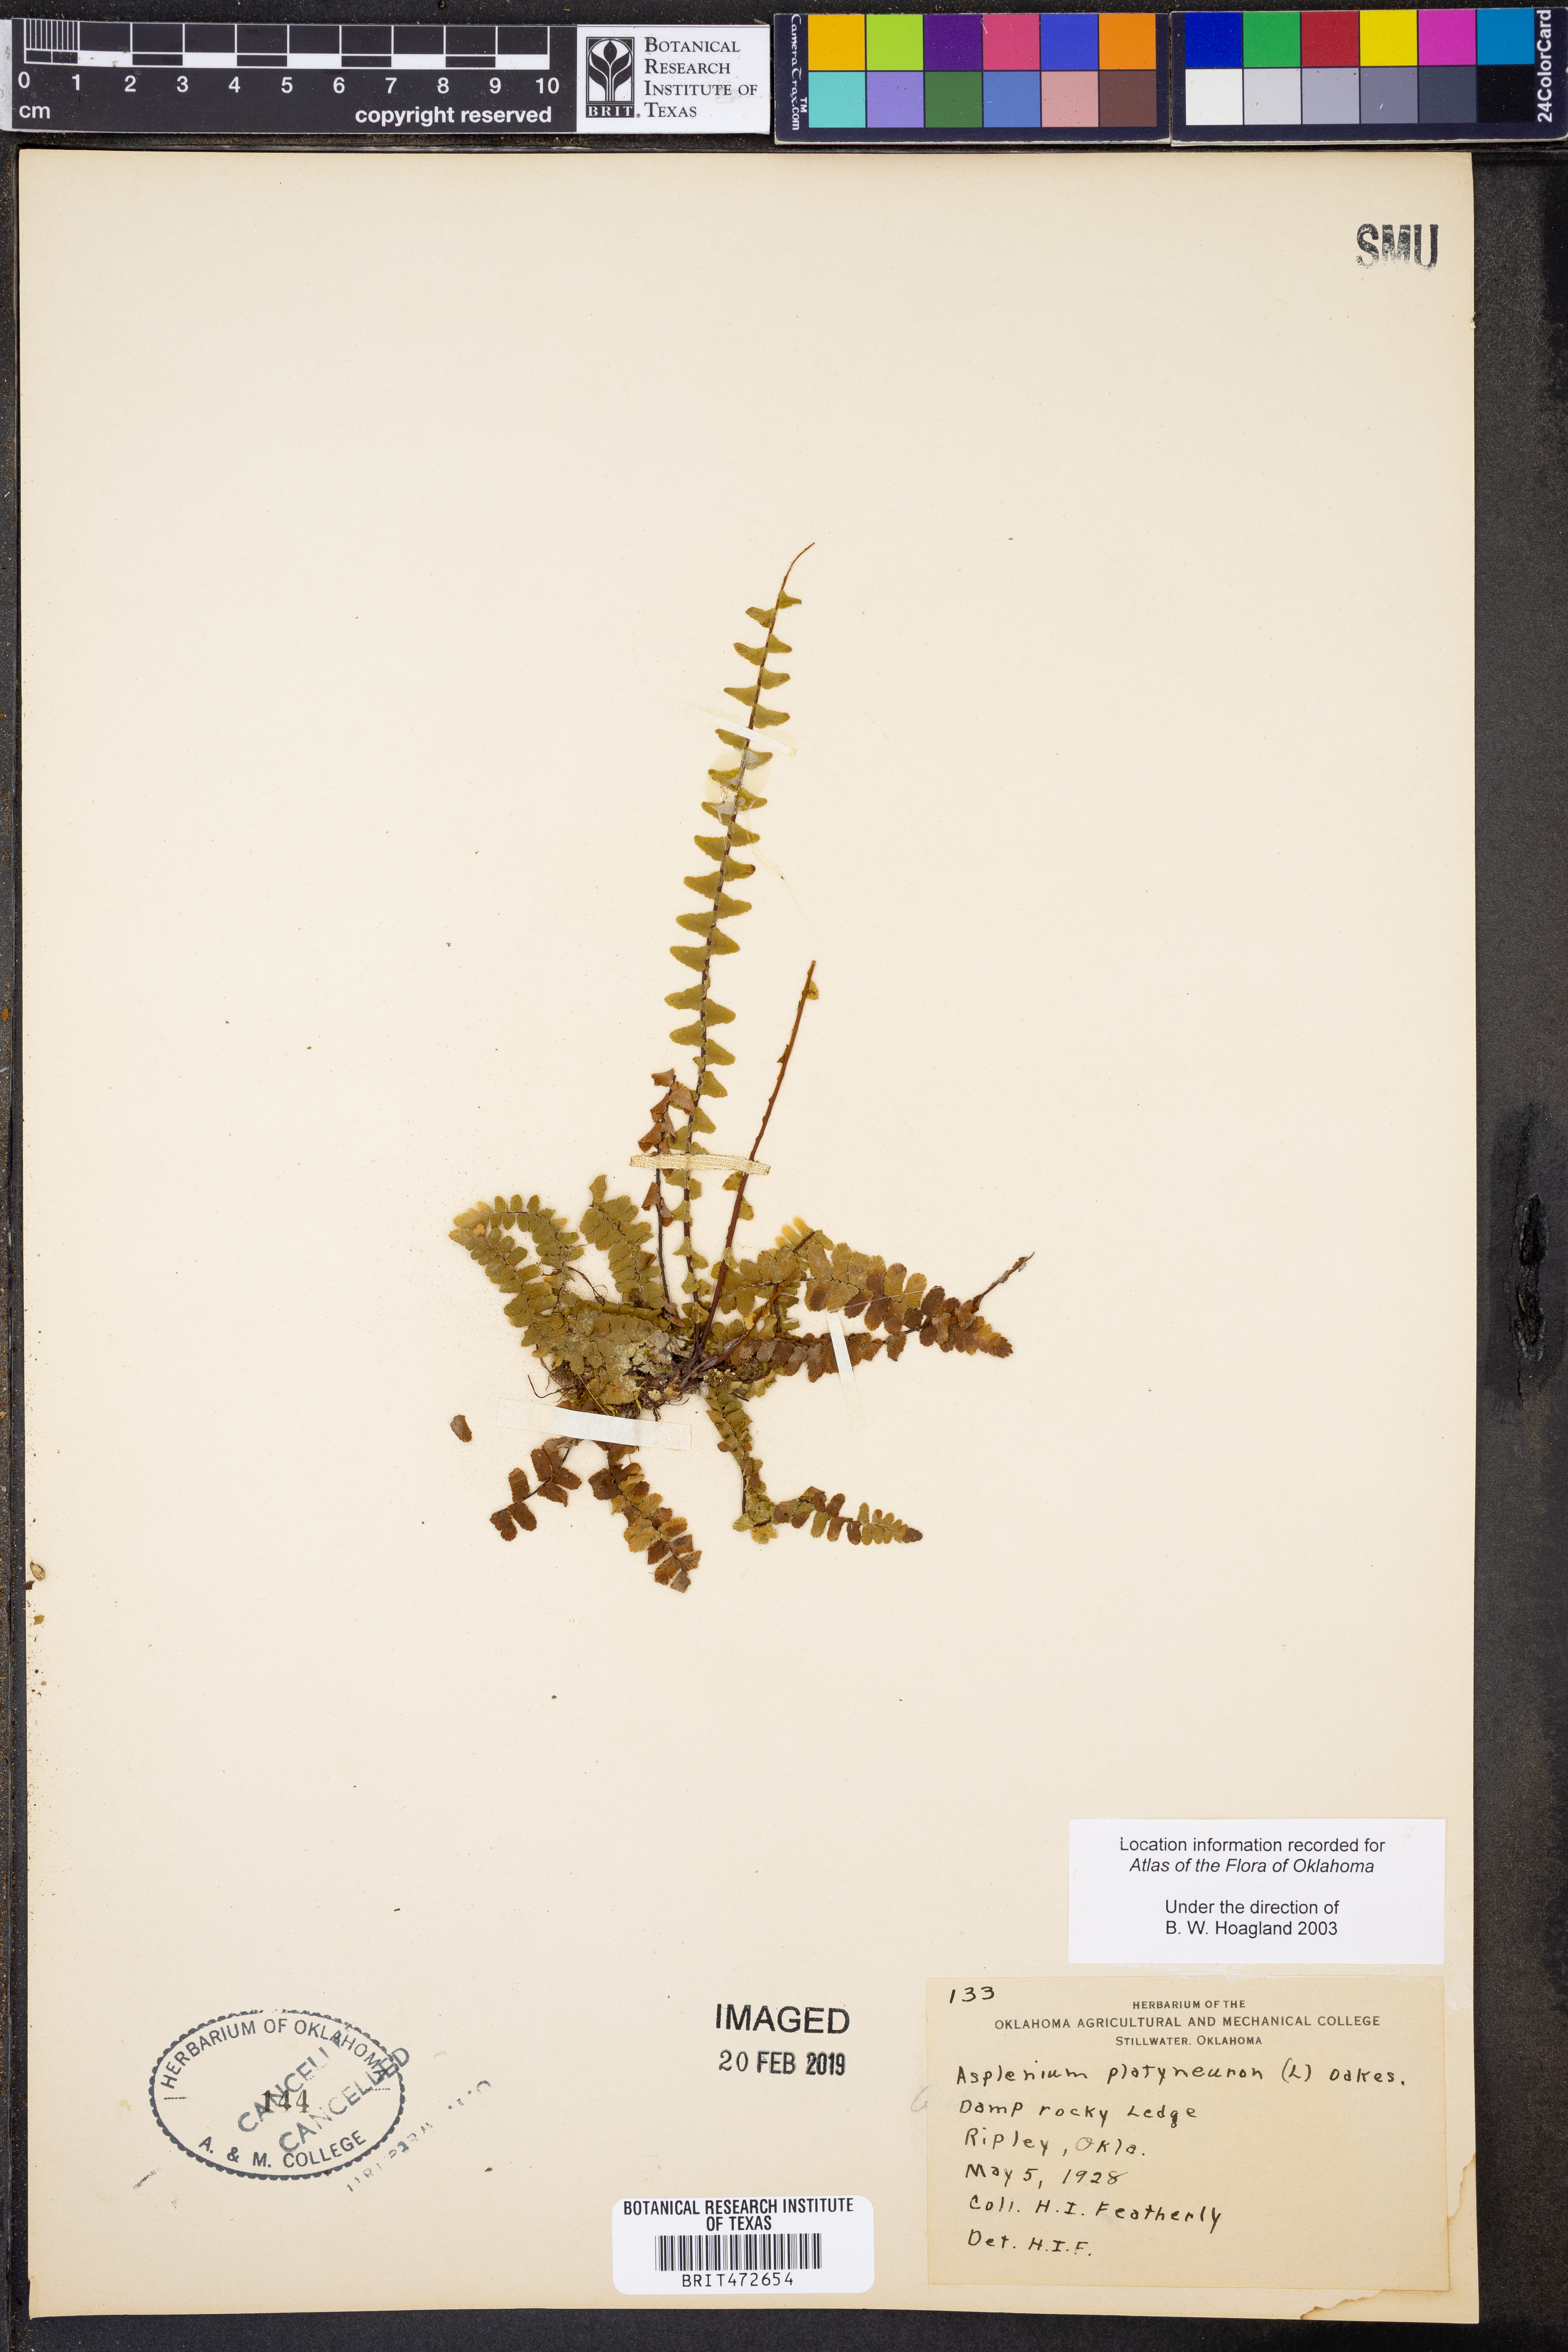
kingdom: Plantae
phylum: Tracheophyta
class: Polypodiopsida
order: Polypodiales
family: Aspleniaceae
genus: Asplenium
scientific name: Asplenium platyneuron
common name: Ebony spleenwort
